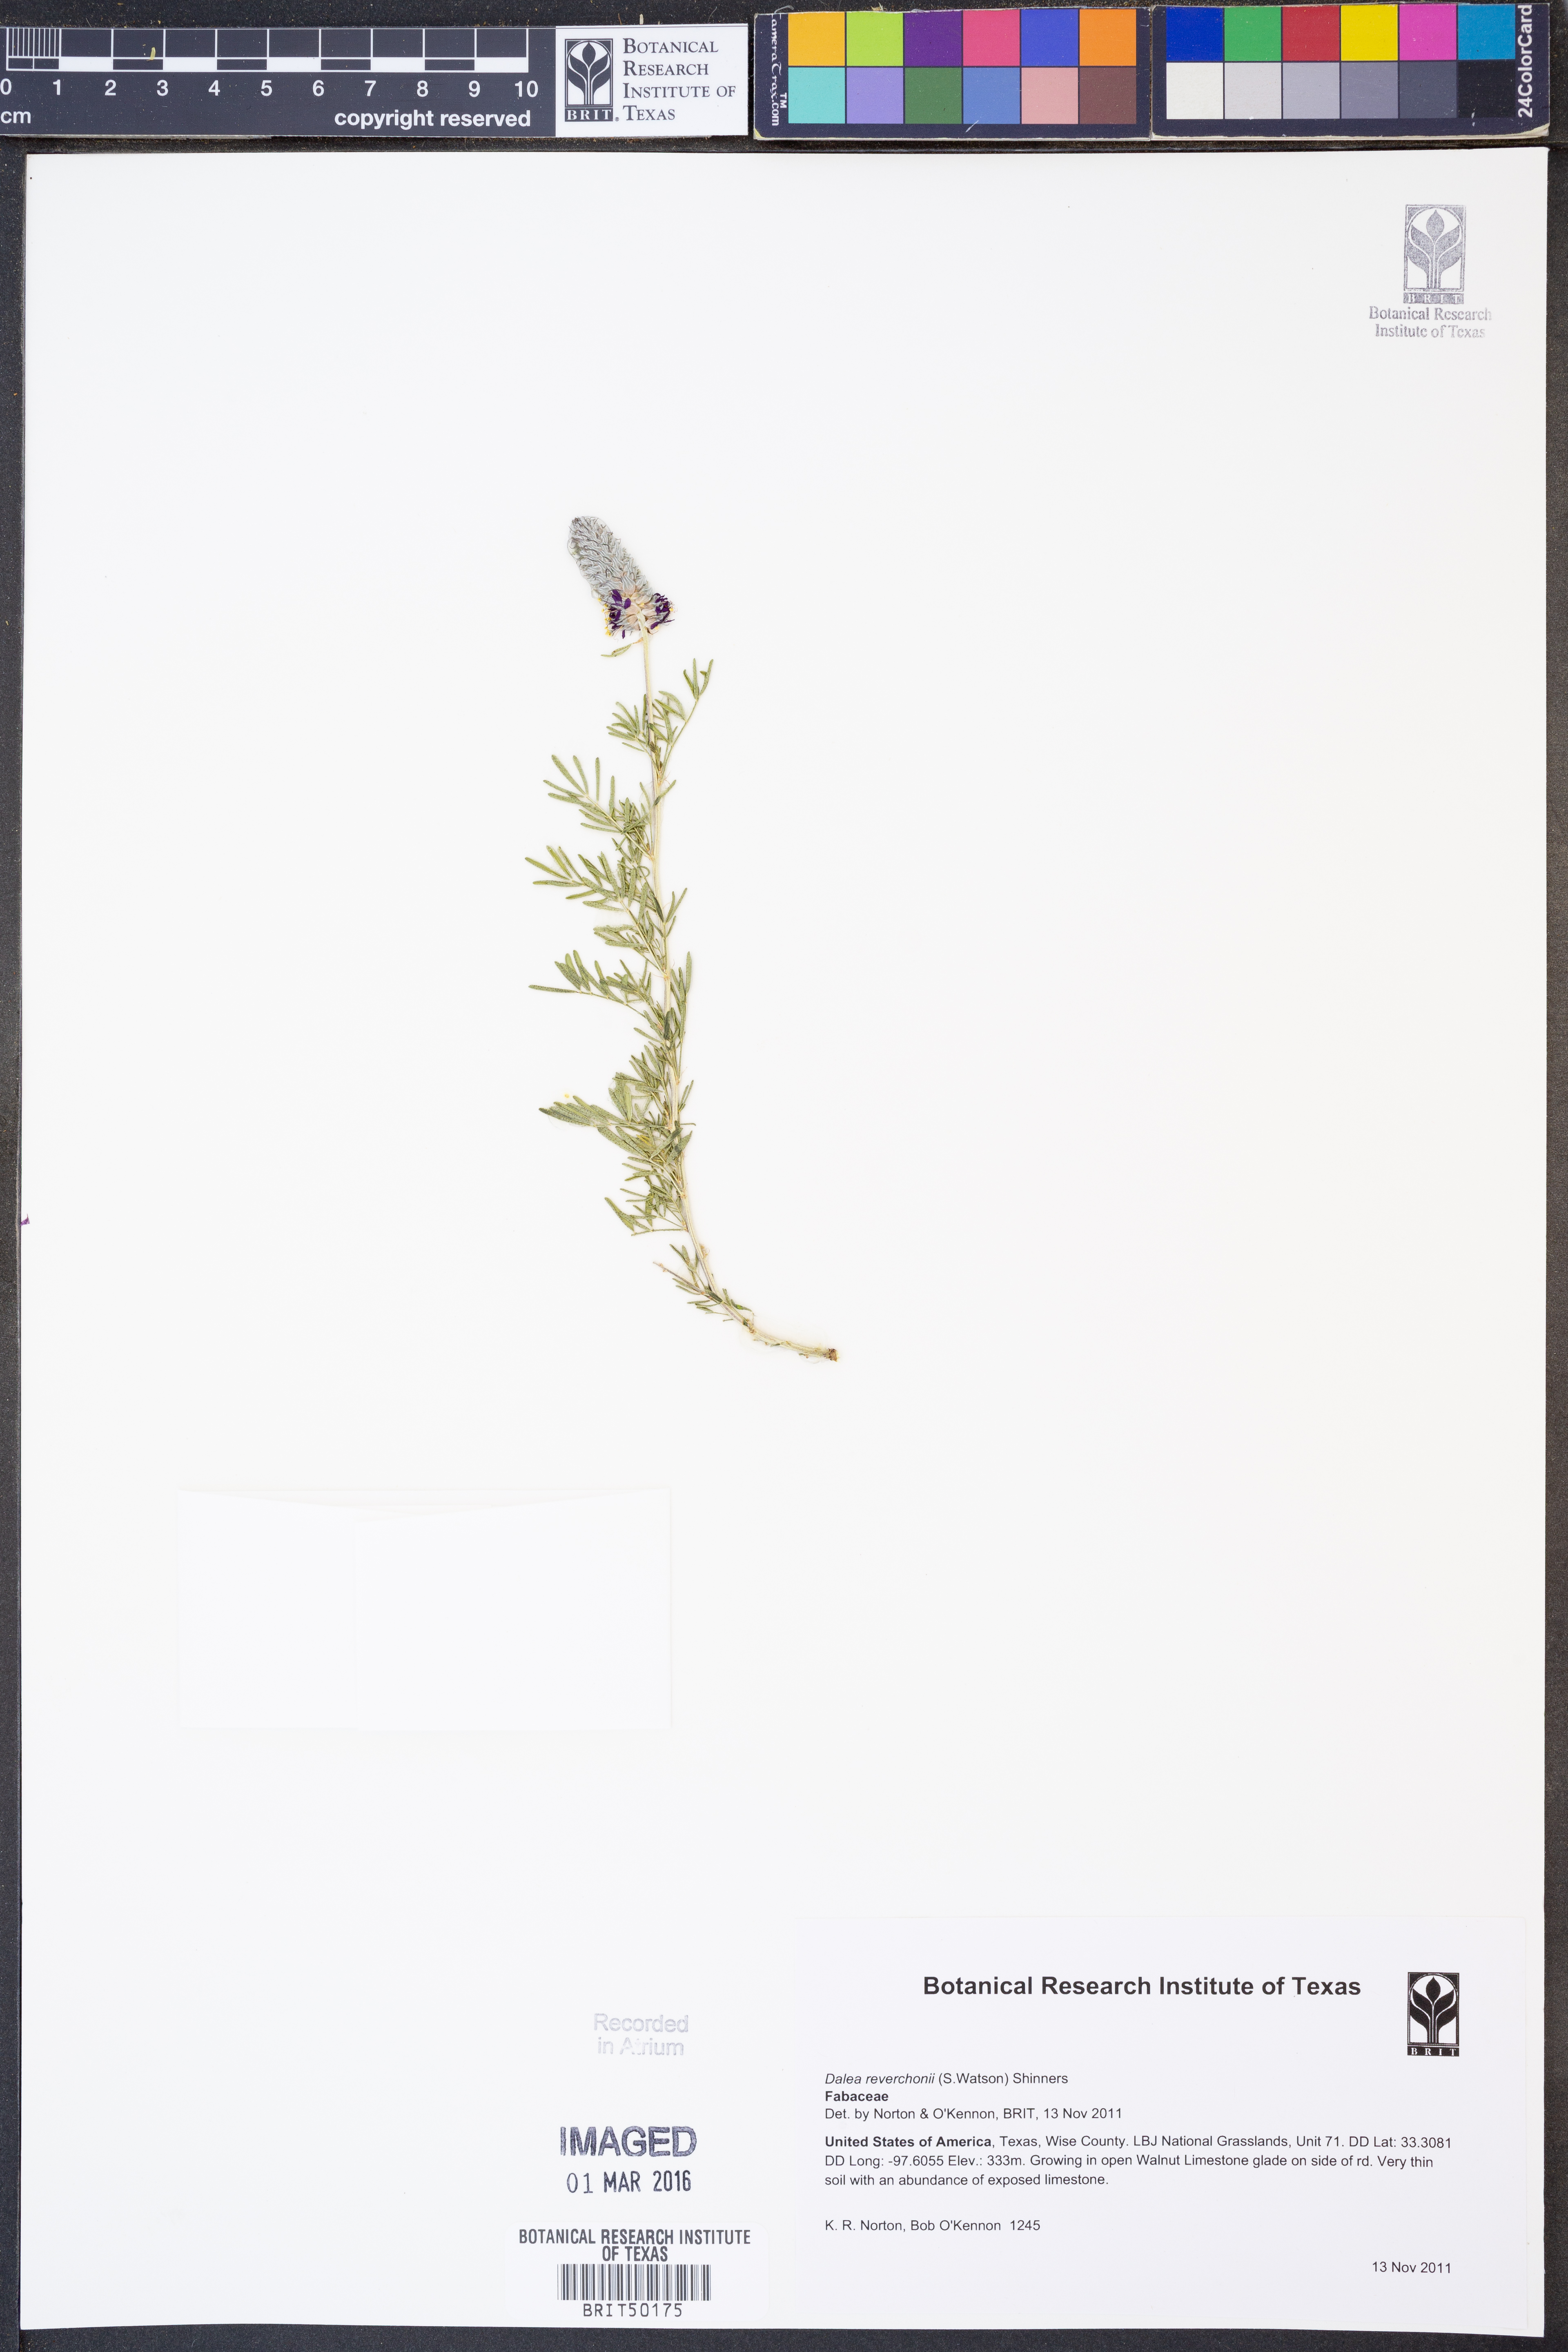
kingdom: Plantae
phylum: Tracheophyta
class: Magnoliopsida
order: Fabales
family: Fabaceae
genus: Dalea
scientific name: Dalea reverchonii
